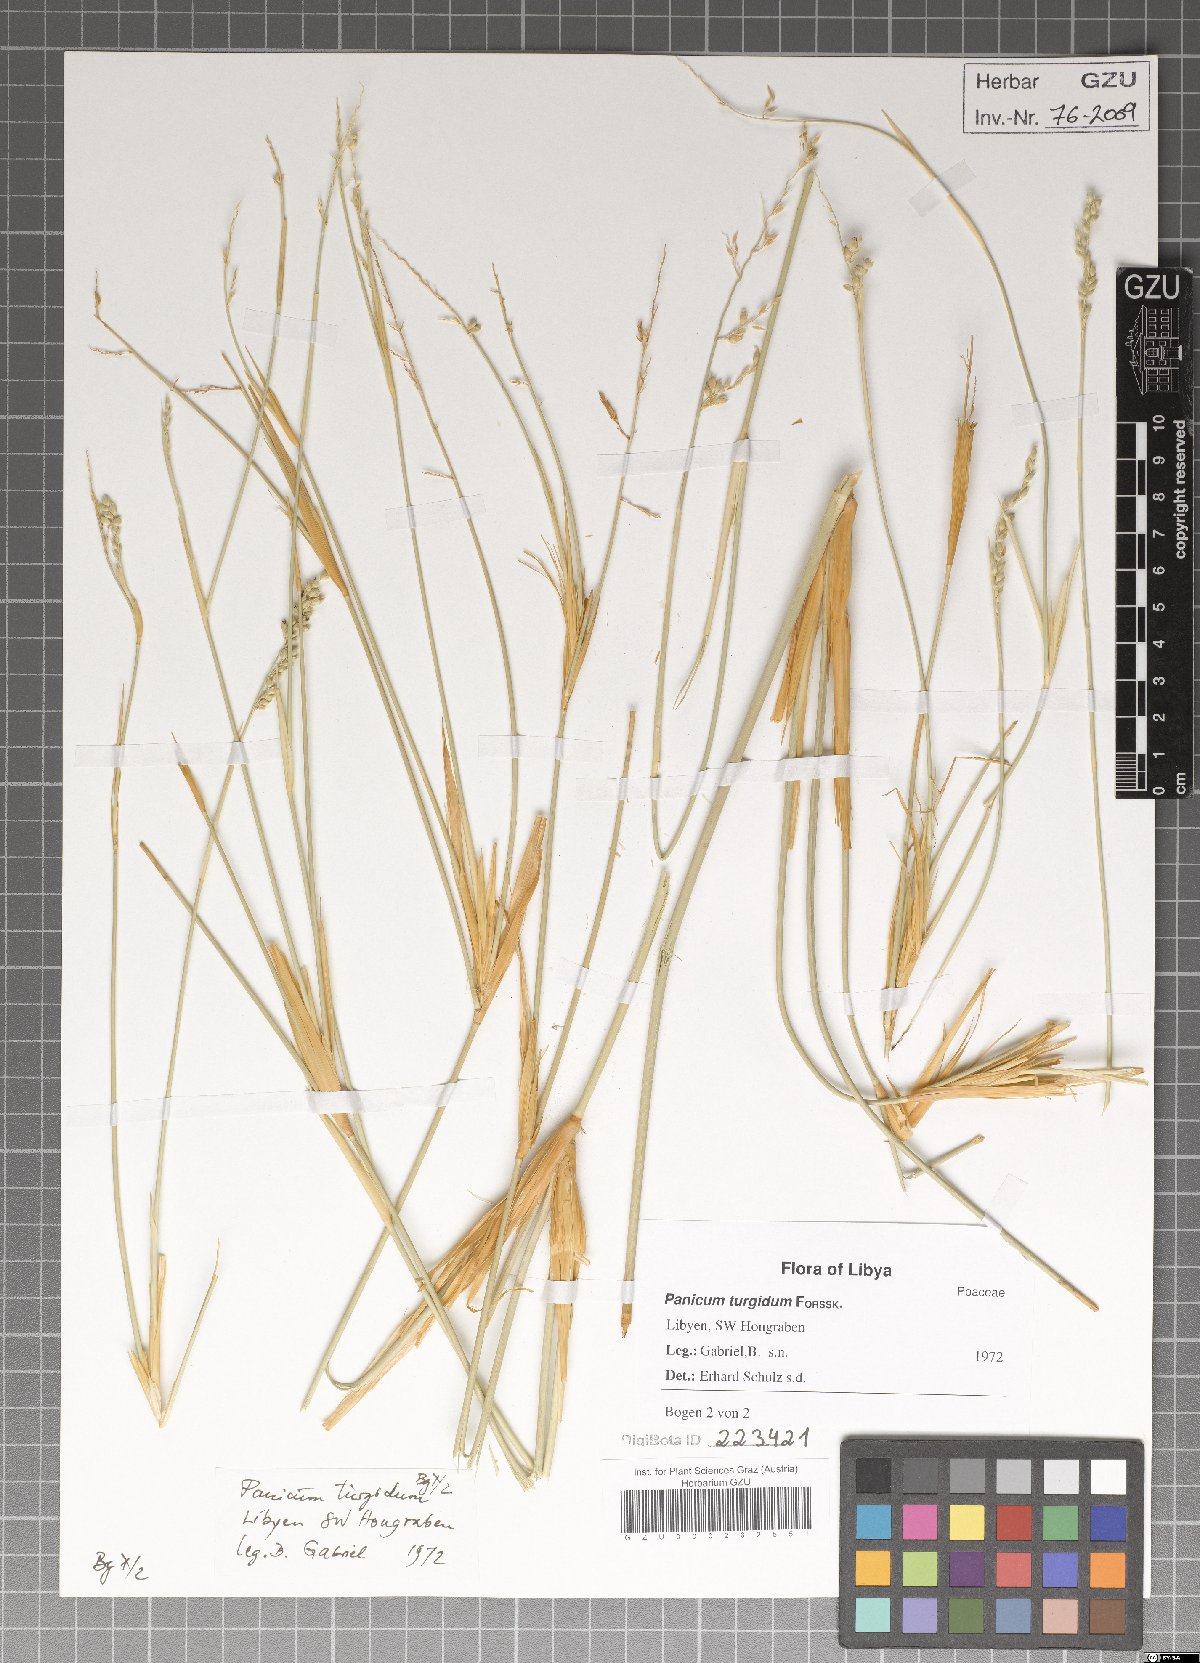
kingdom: Plantae
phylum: Tracheophyta
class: Liliopsida
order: Poales
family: Poaceae
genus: Panicum
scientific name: Panicum turgidum
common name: Desert grass
